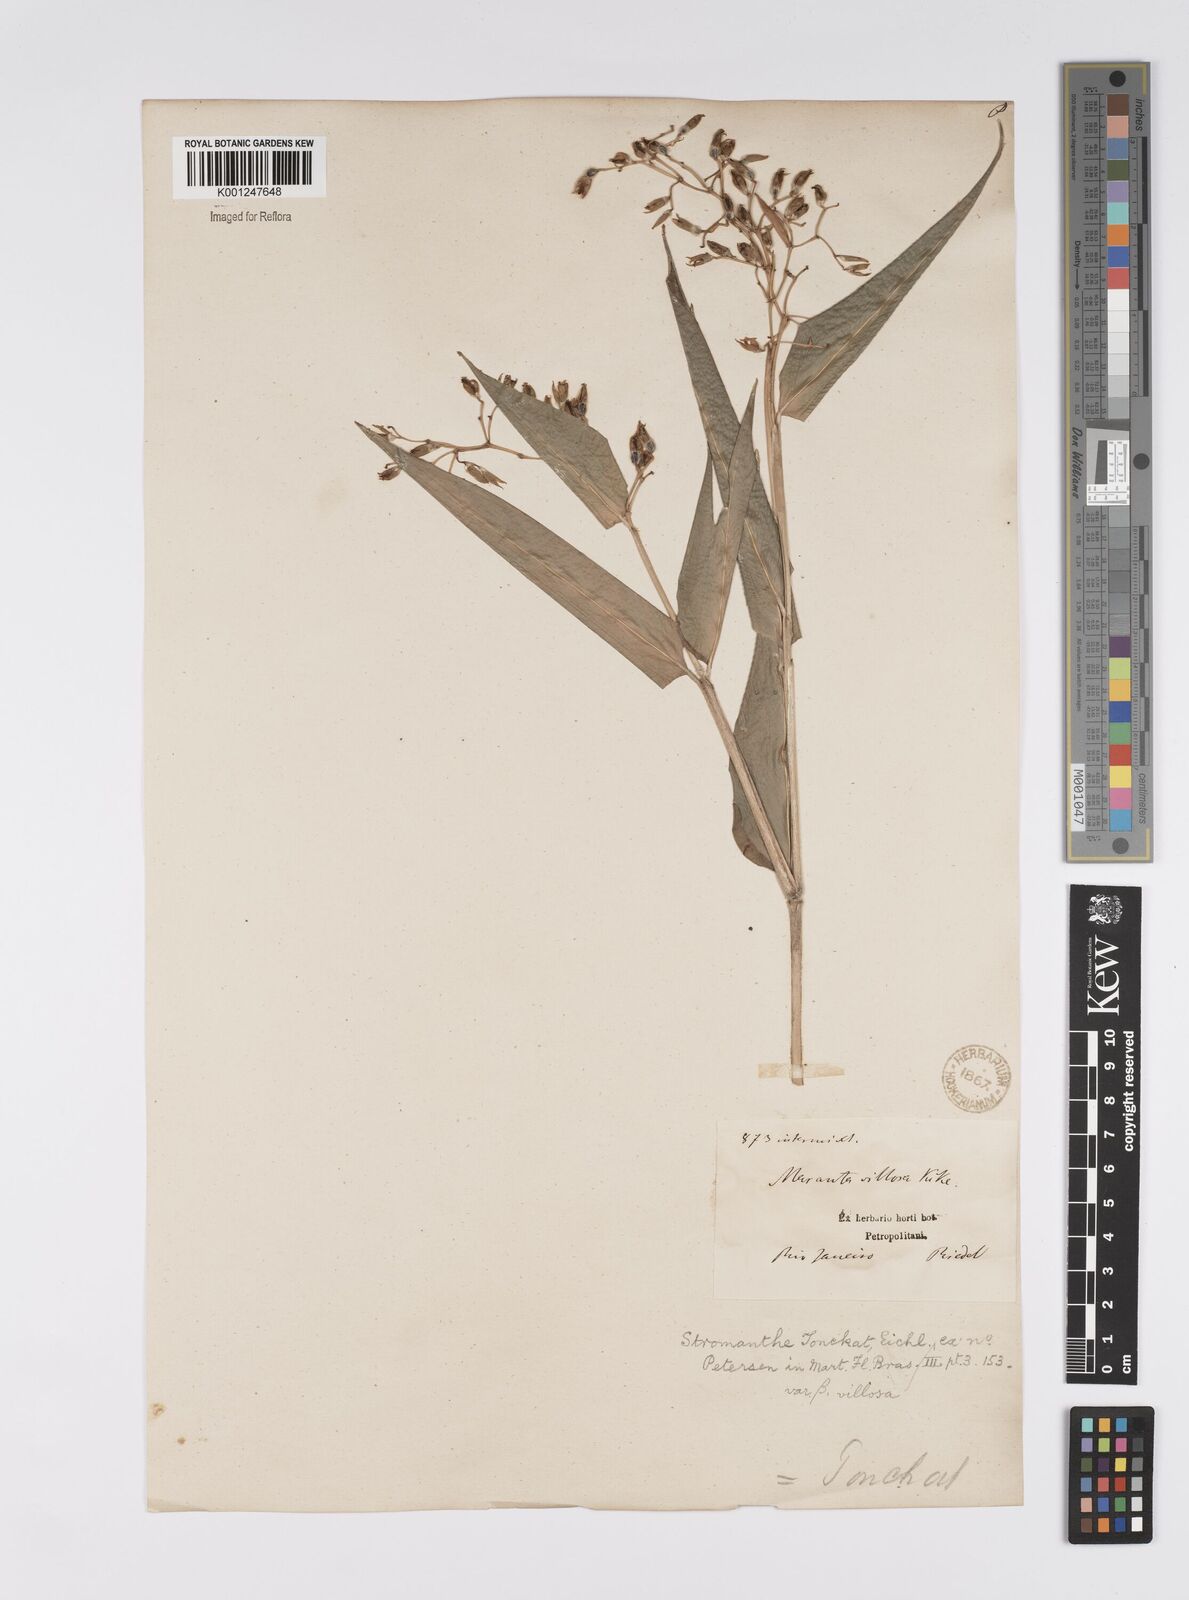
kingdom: Plantae
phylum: Tracheophyta
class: Liliopsida
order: Zingiberales
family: Marantaceae
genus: Stromanthe
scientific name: Stromanthe tonckat
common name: Stromanthe
